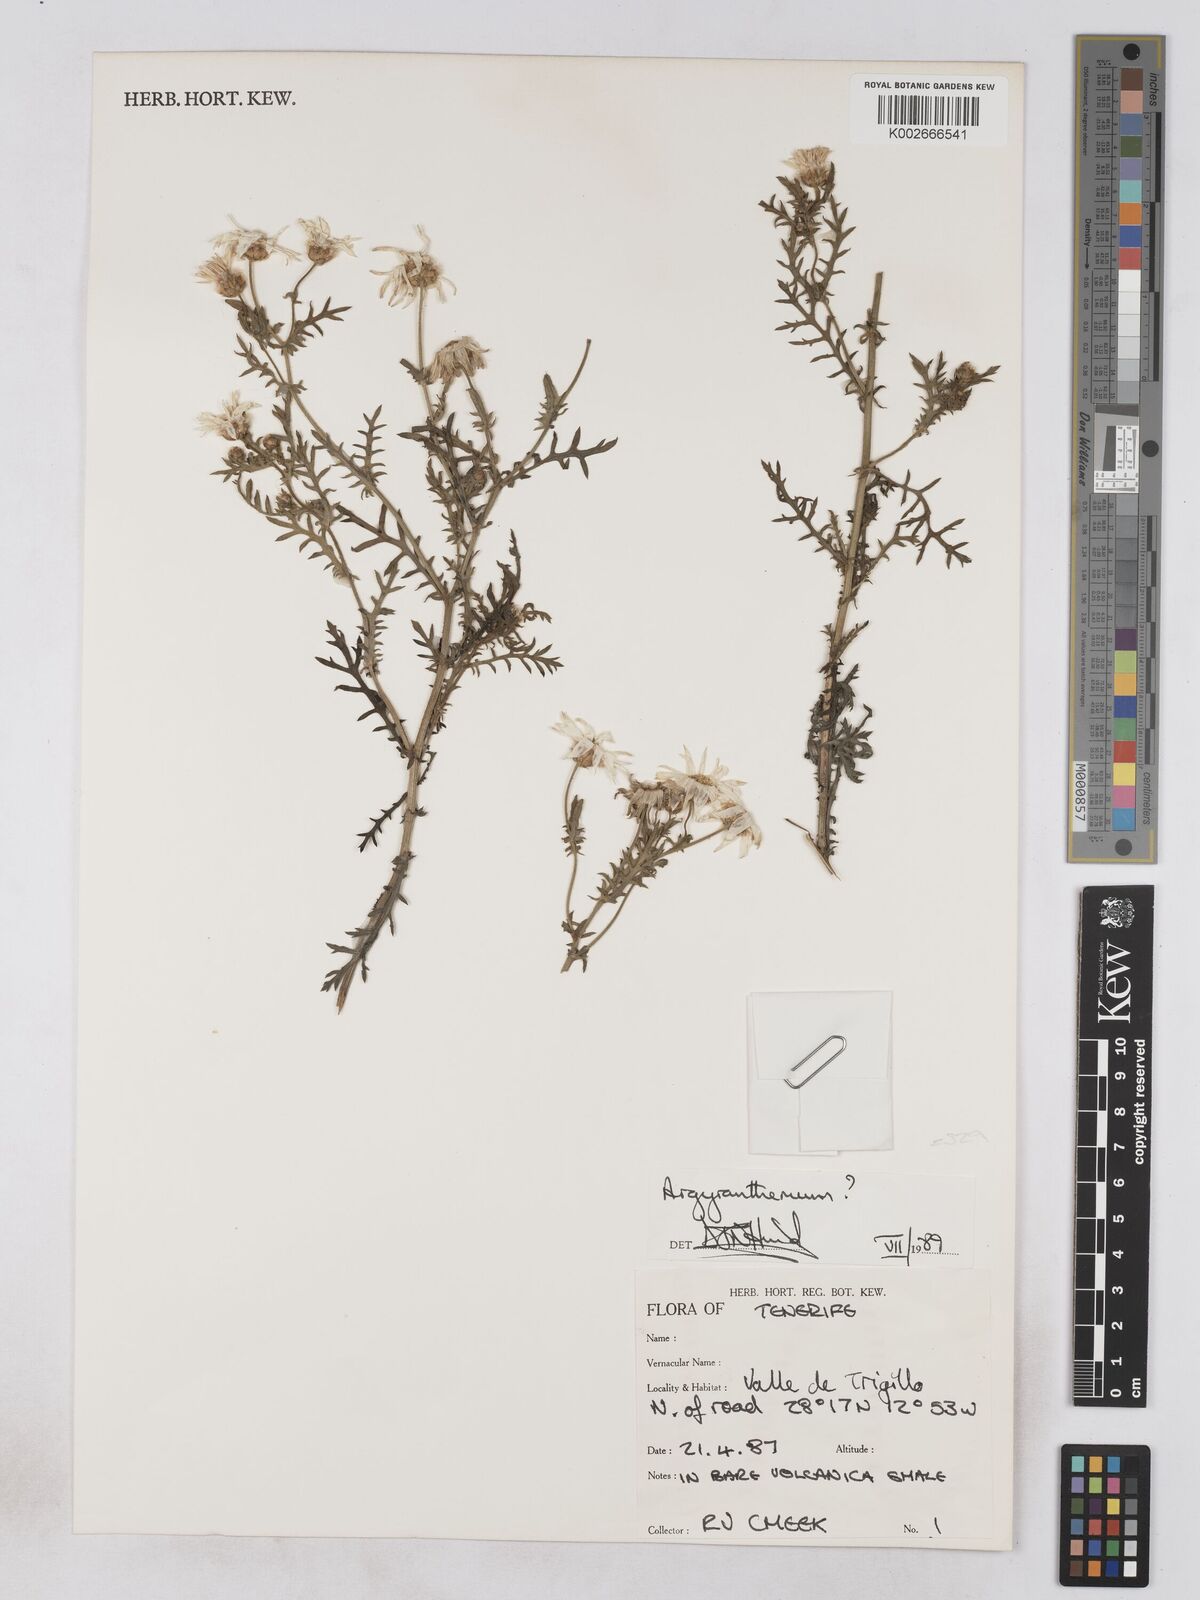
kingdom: Plantae
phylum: Tracheophyta
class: Magnoliopsida
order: Asterales
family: Asteraceae
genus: Argyranthemum
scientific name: Argyranthemum
